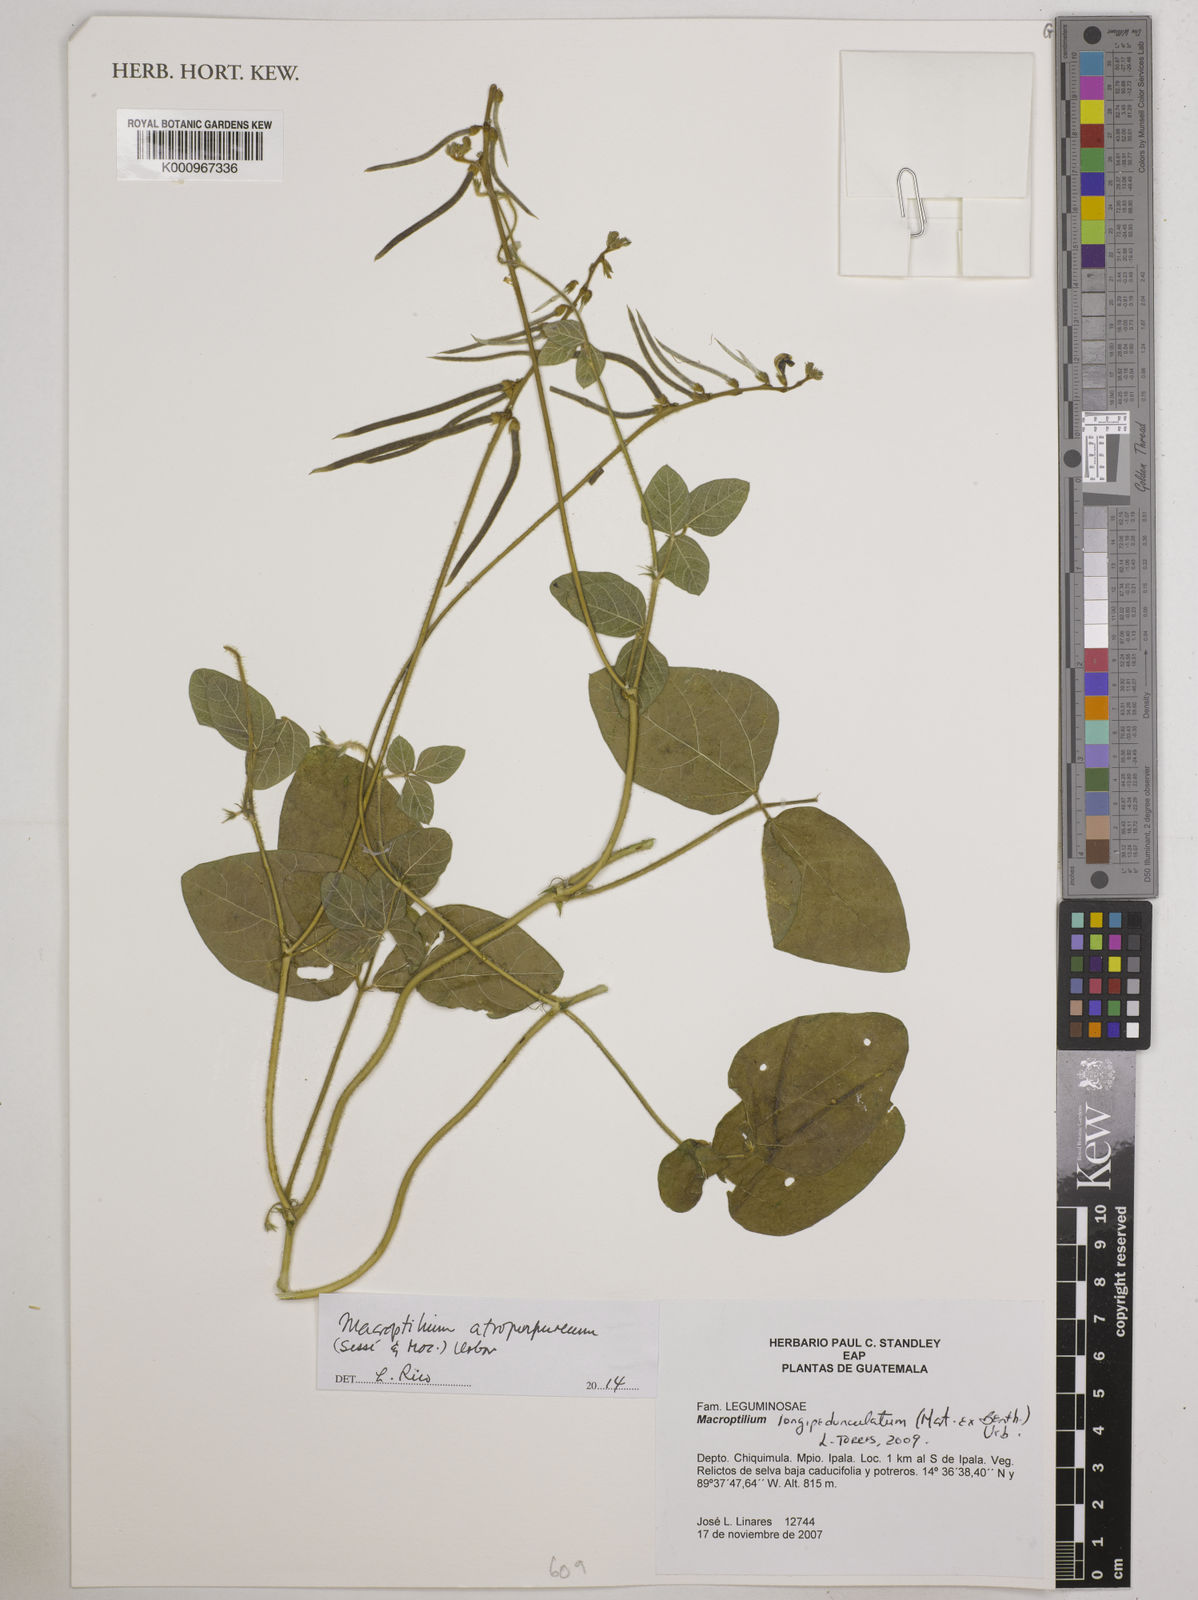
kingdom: Plantae
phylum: Tracheophyta
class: Magnoliopsida
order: Fabales
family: Fabaceae
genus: Macroptilium
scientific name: Macroptilium atropurpureum
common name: Purple bushbean
